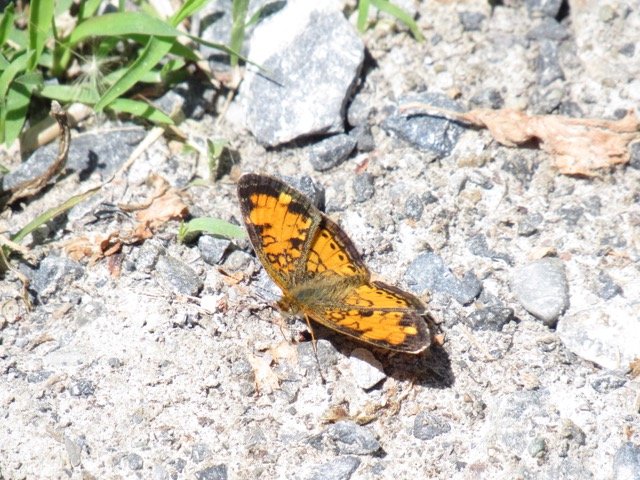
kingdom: Animalia
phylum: Arthropoda
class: Insecta
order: Lepidoptera
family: Nymphalidae
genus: Phyciodes
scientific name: Phyciodes tharos
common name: Pearl Crescent
